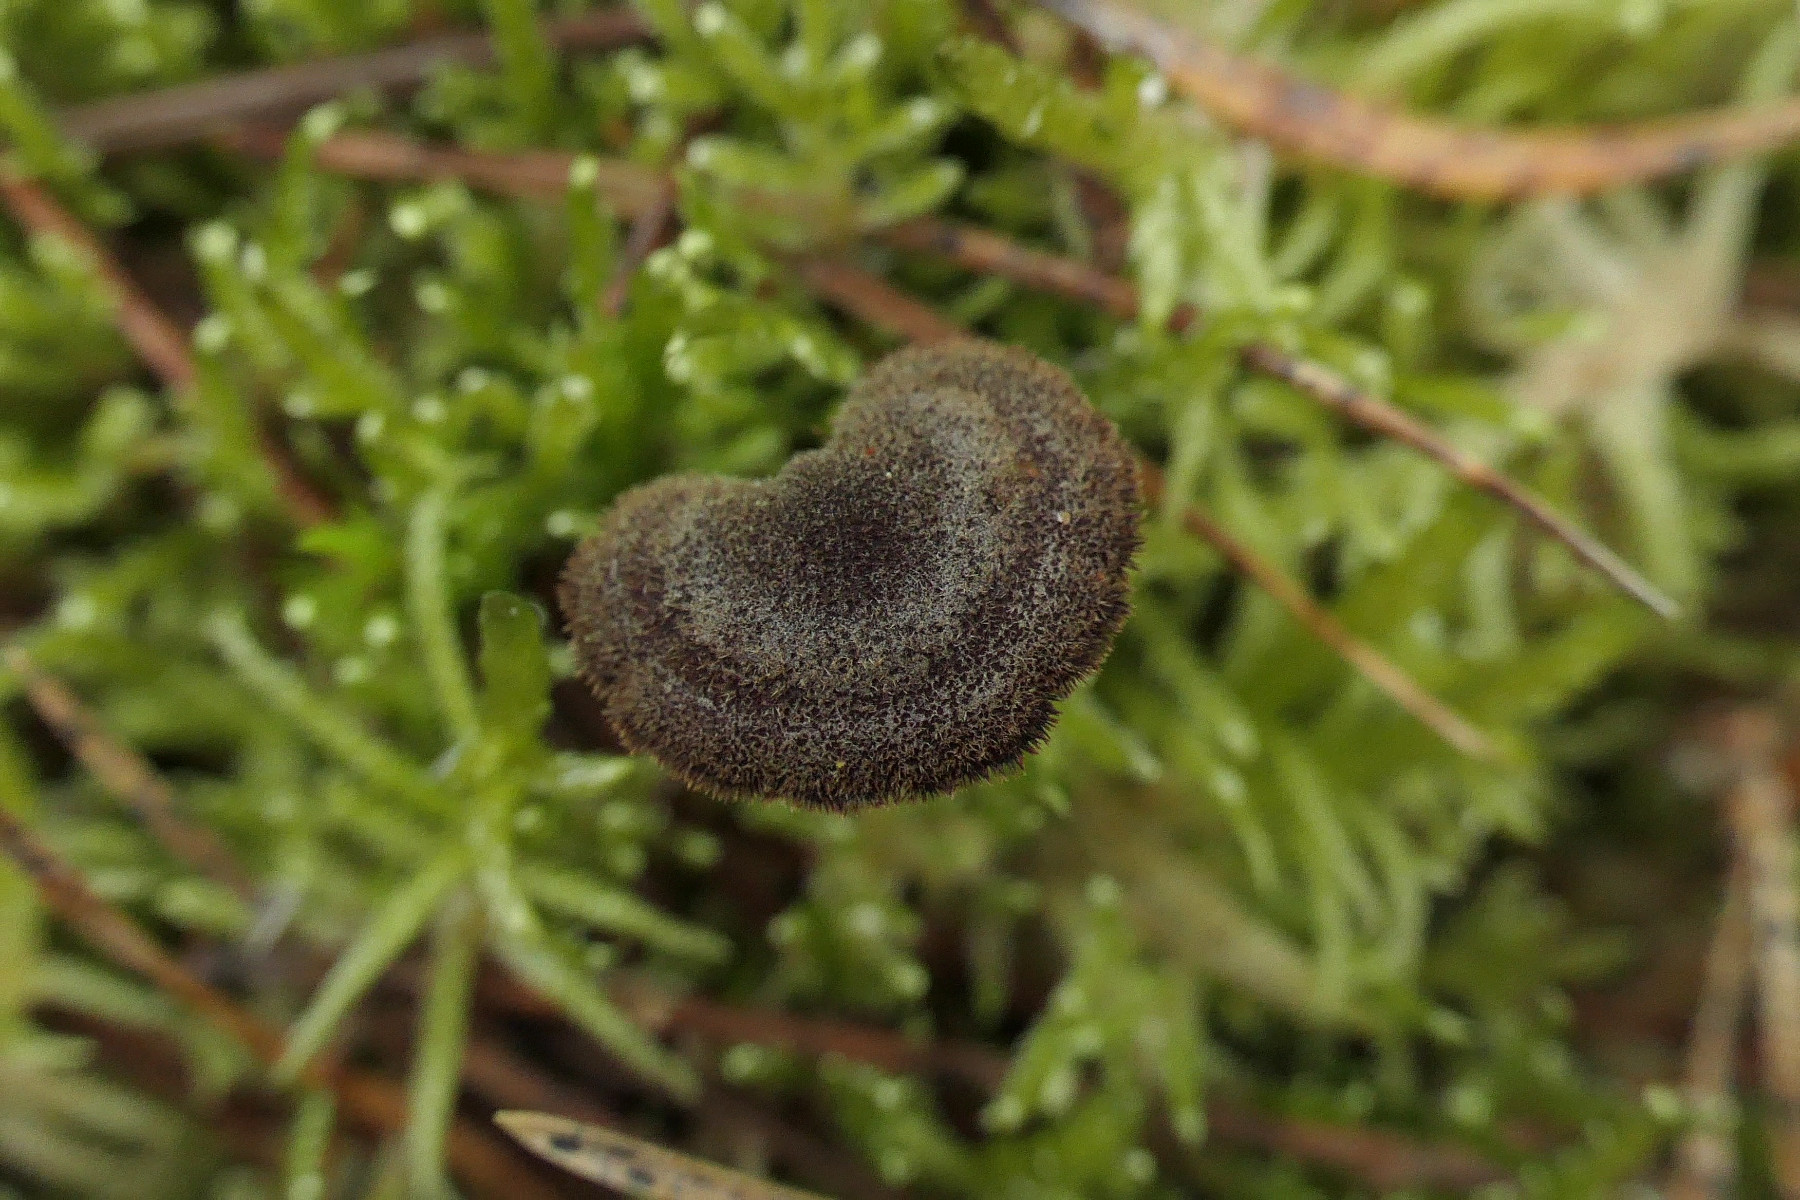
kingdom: Fungi
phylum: Basidiomycota
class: Agaricomycetes
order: Russulales
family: Auriscalpiaceae
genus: Auriscalpium
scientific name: Auriscalpium vulgare
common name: koglepigsvamp
